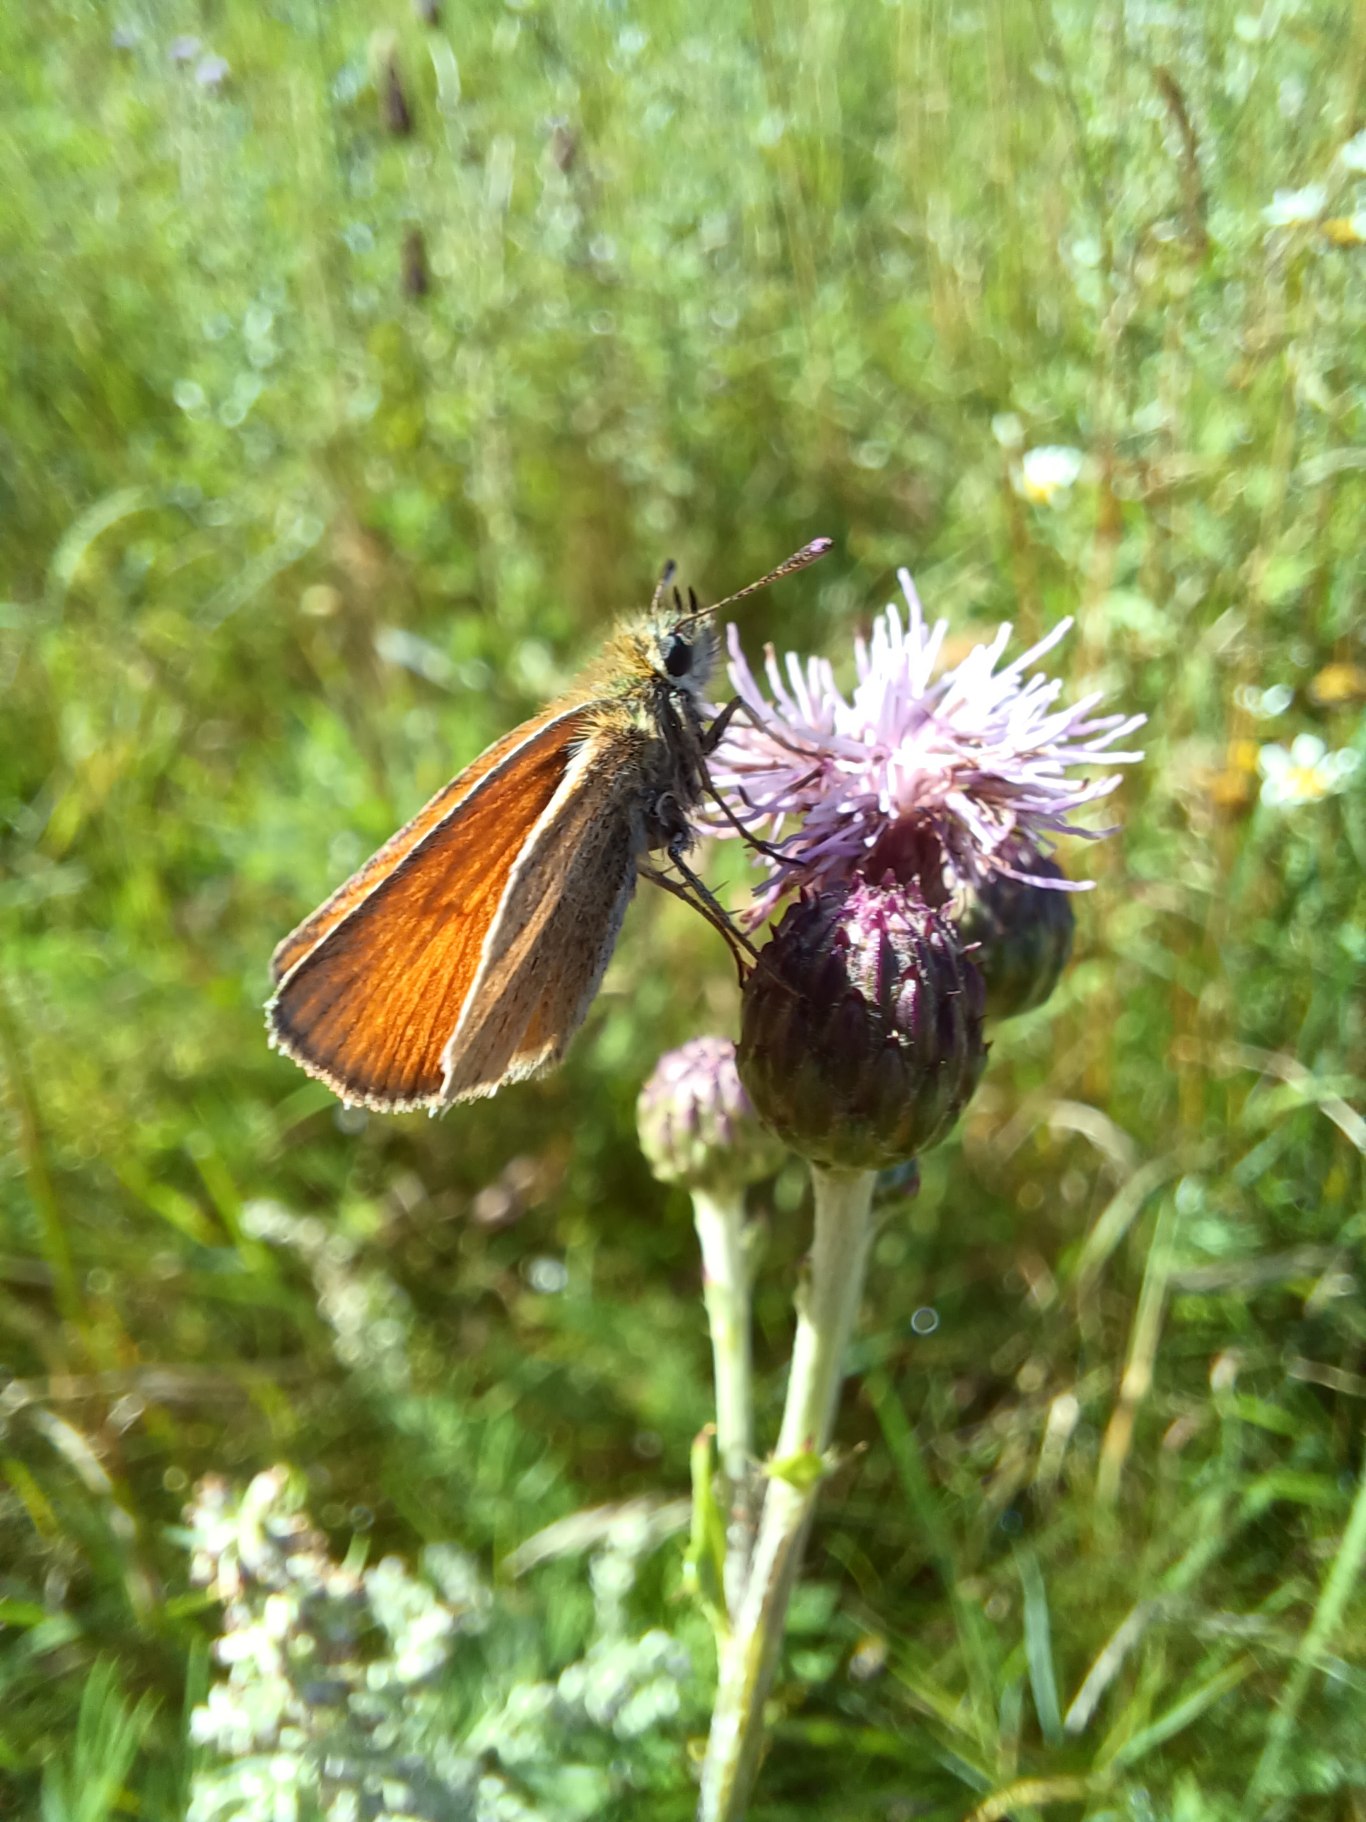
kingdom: Animalia
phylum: Arthropoda
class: Insecta
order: Lepidoptera
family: Hesperiidae
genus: Thymelicus
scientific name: Thymelicus lineola
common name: Stregbredpande
